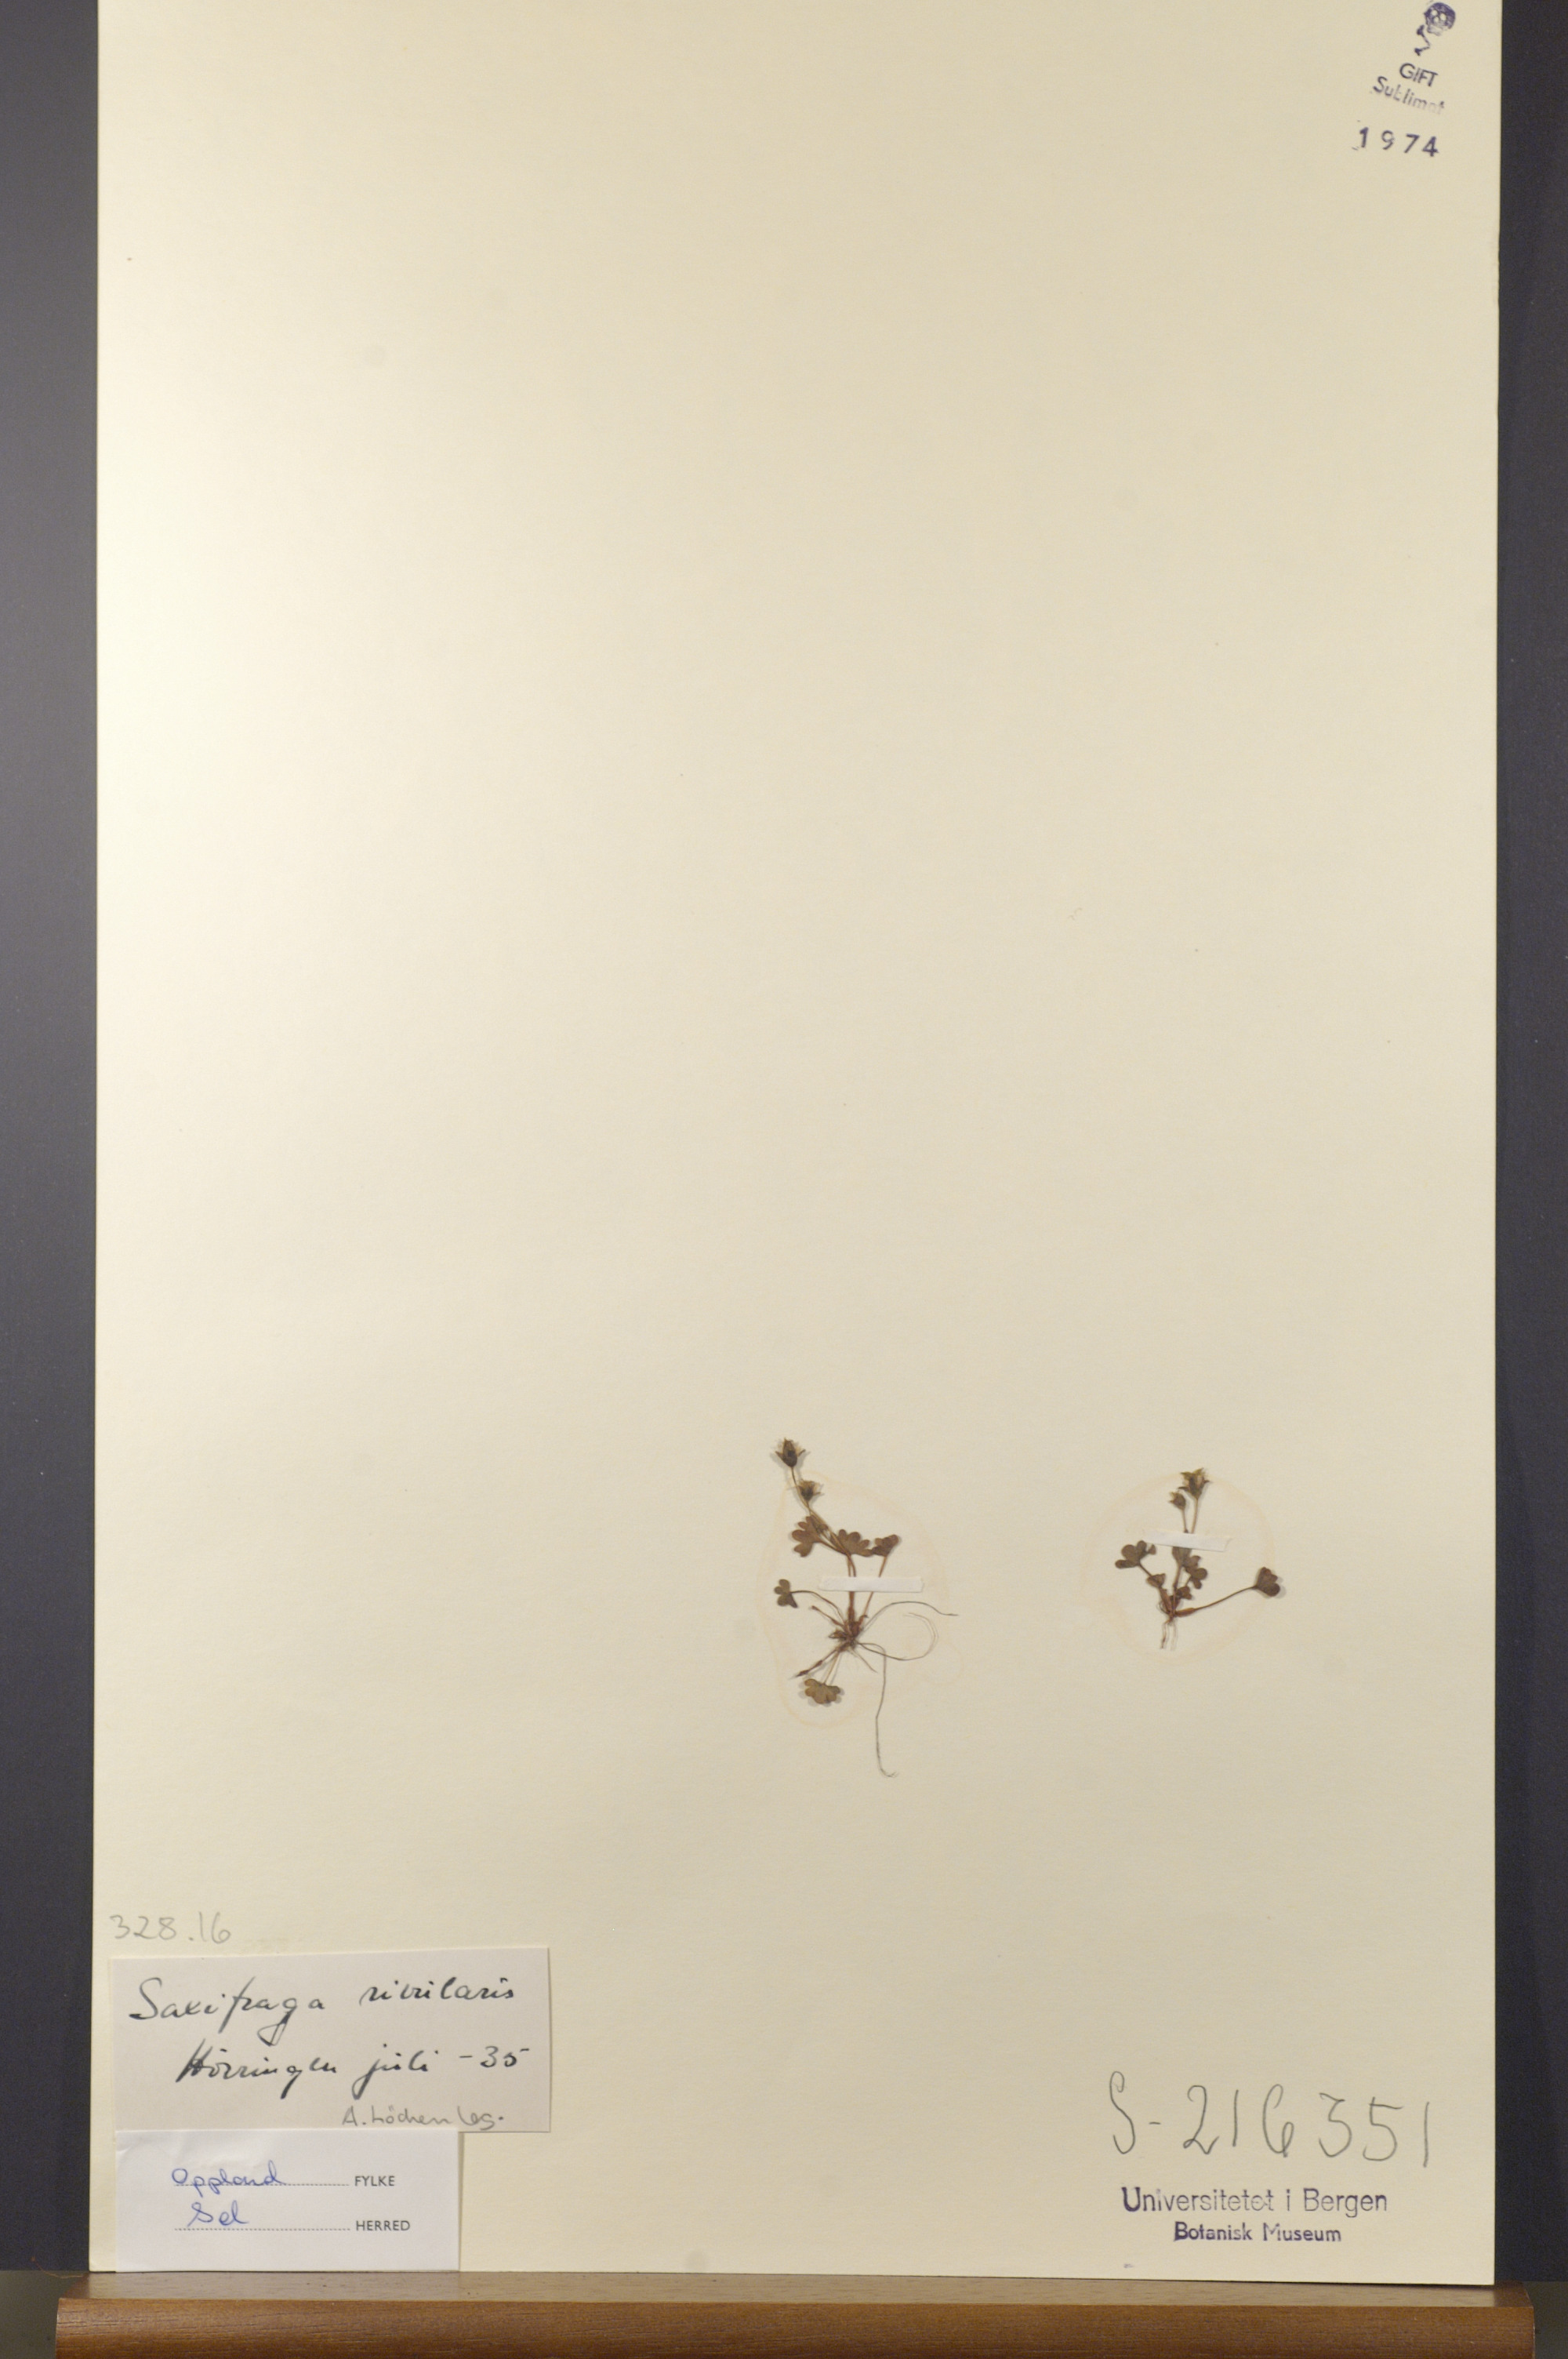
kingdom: Plantae
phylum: Tracheophyta
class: Magnoliopsida
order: Saxifragales
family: Saxifragaceae
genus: Saxifraga
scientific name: Saxifraga rivularis
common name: Highland saxifrage
